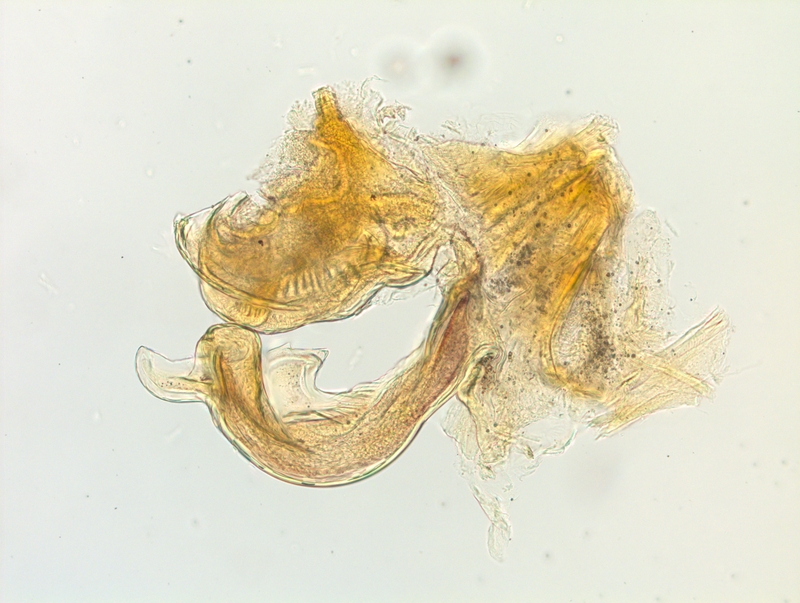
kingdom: Animalia
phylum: Arthropoda
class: Diplopoda
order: Chordeumatida
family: Craspedosomatidae
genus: Craspedosoma
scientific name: Craspedosoma alemannicum
